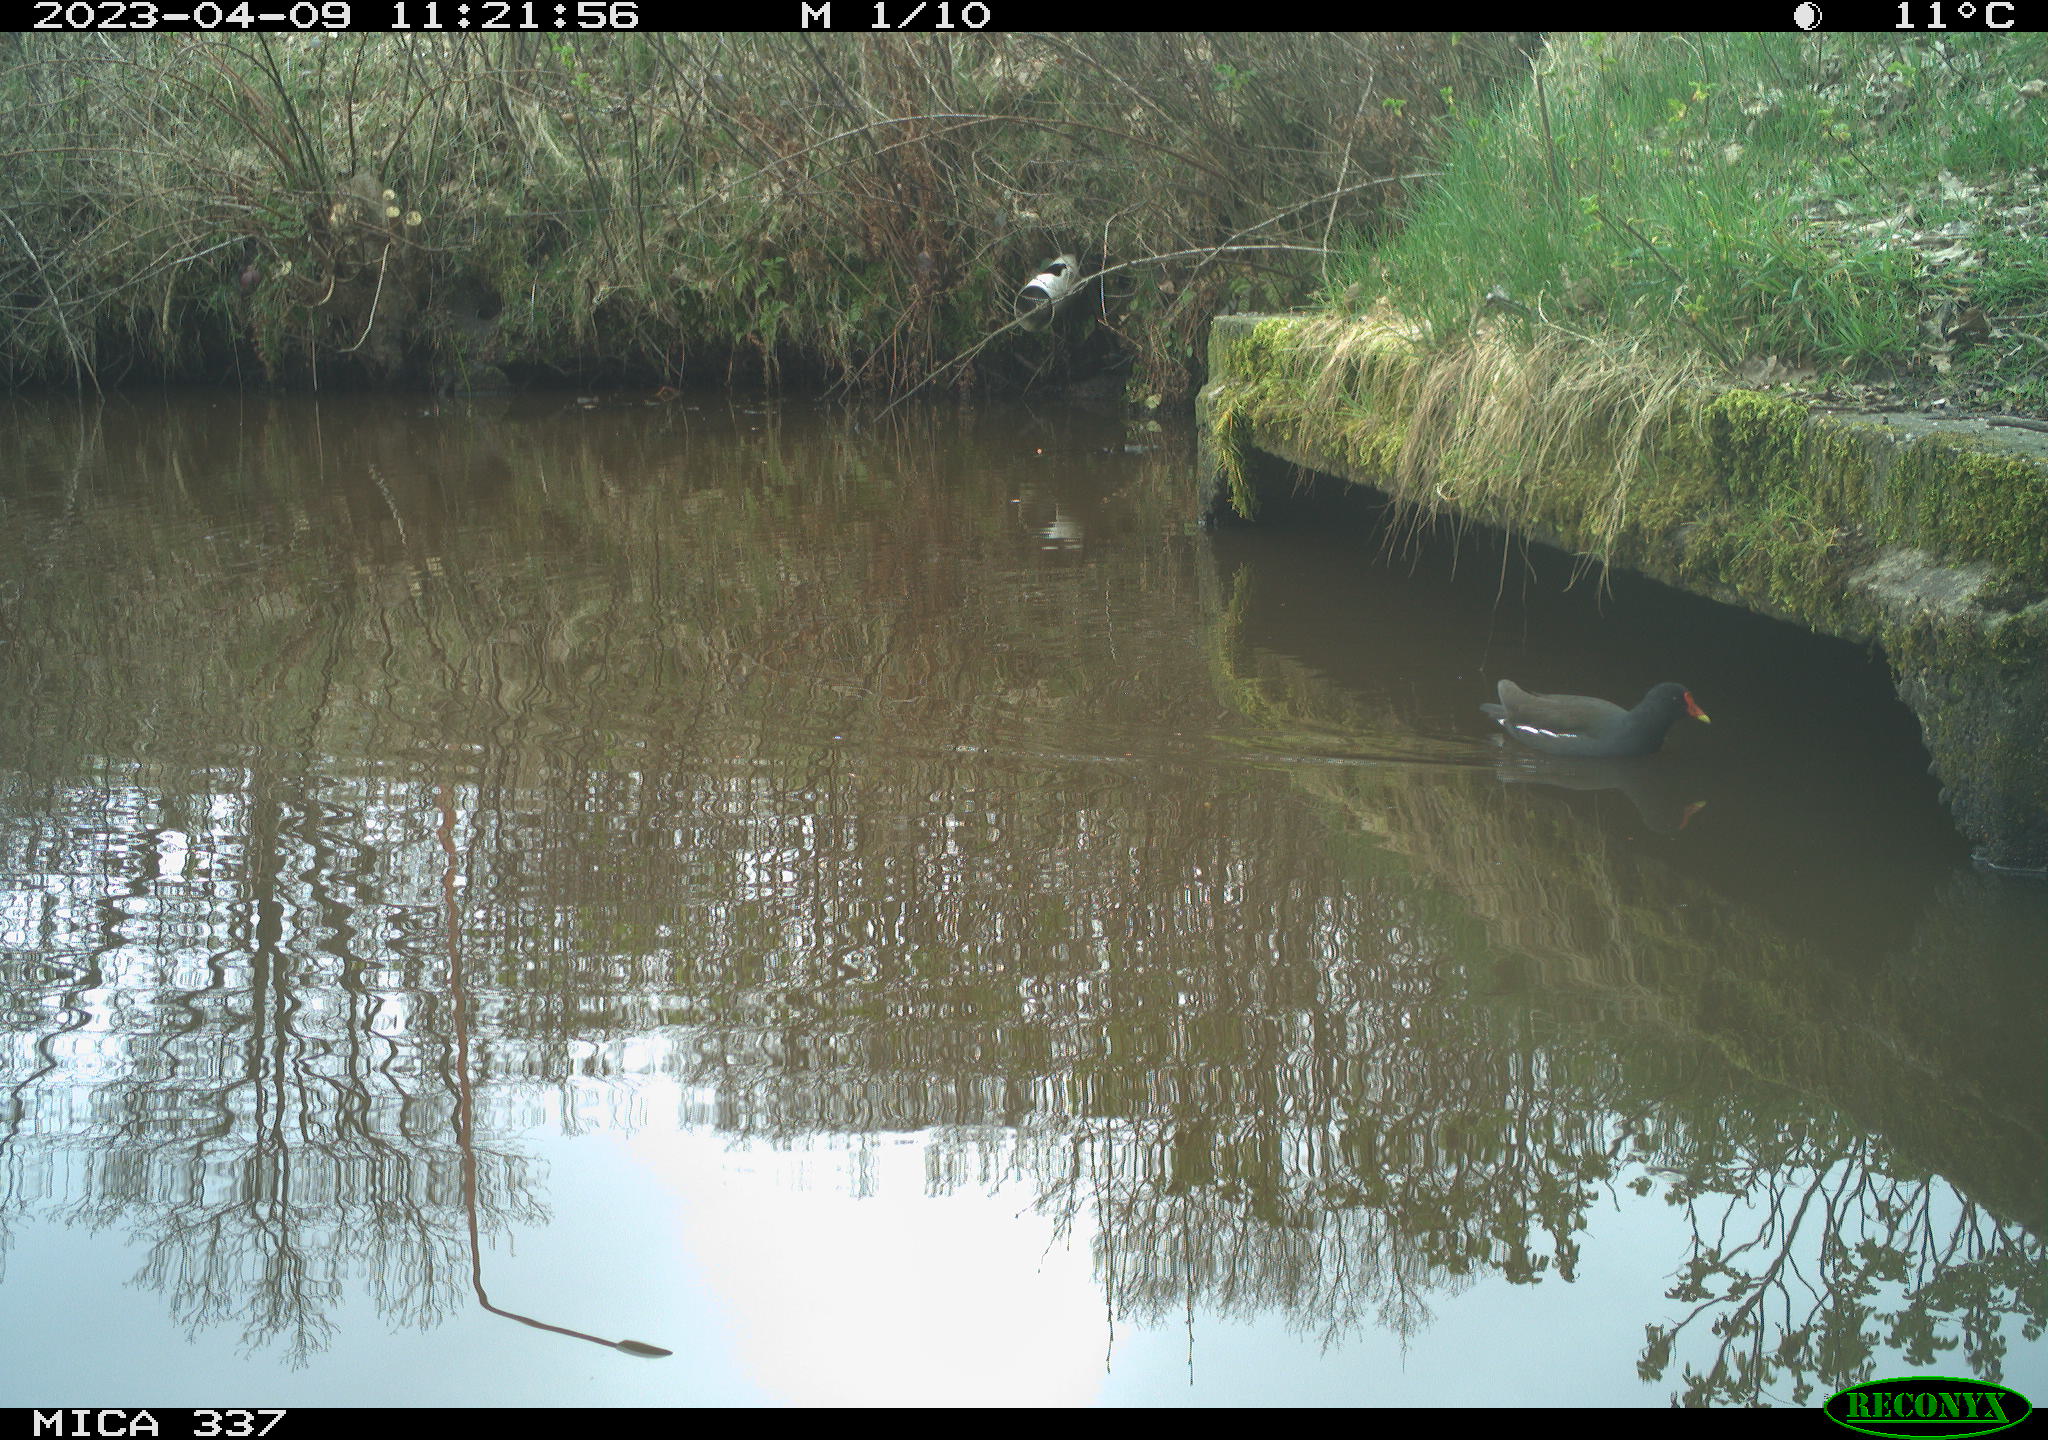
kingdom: Animalia
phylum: Chordata
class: Aves
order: Gruiformes
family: Rallidae
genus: Gallinula
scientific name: Gallinula chloropus
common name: Common moorhen
